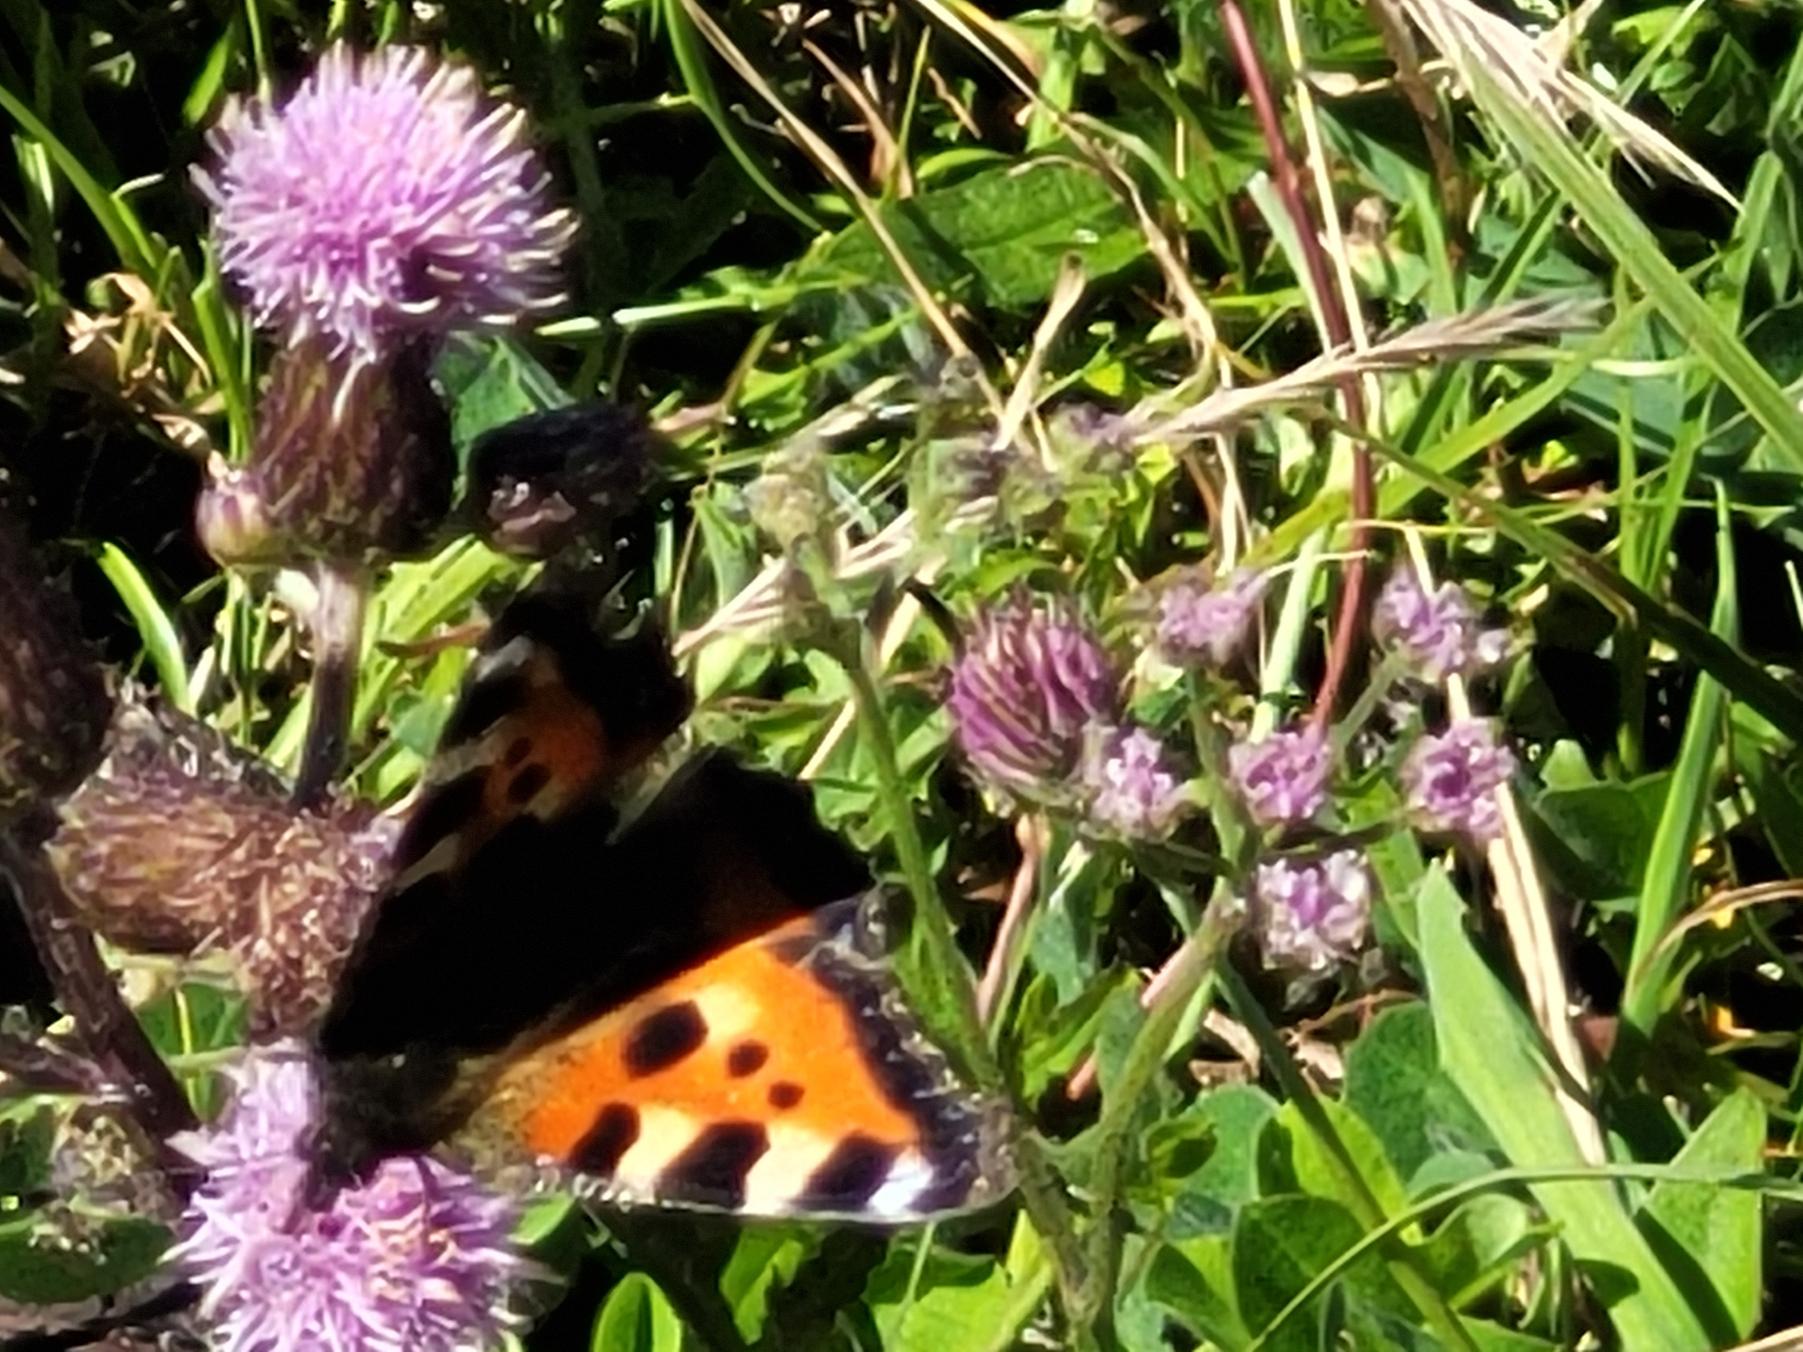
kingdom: Animalia
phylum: Arthropoda
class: Insecta
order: Lepidoptera
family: Nymphalidae
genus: Aglais
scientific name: Aglais urticae
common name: Nældens takvinge
